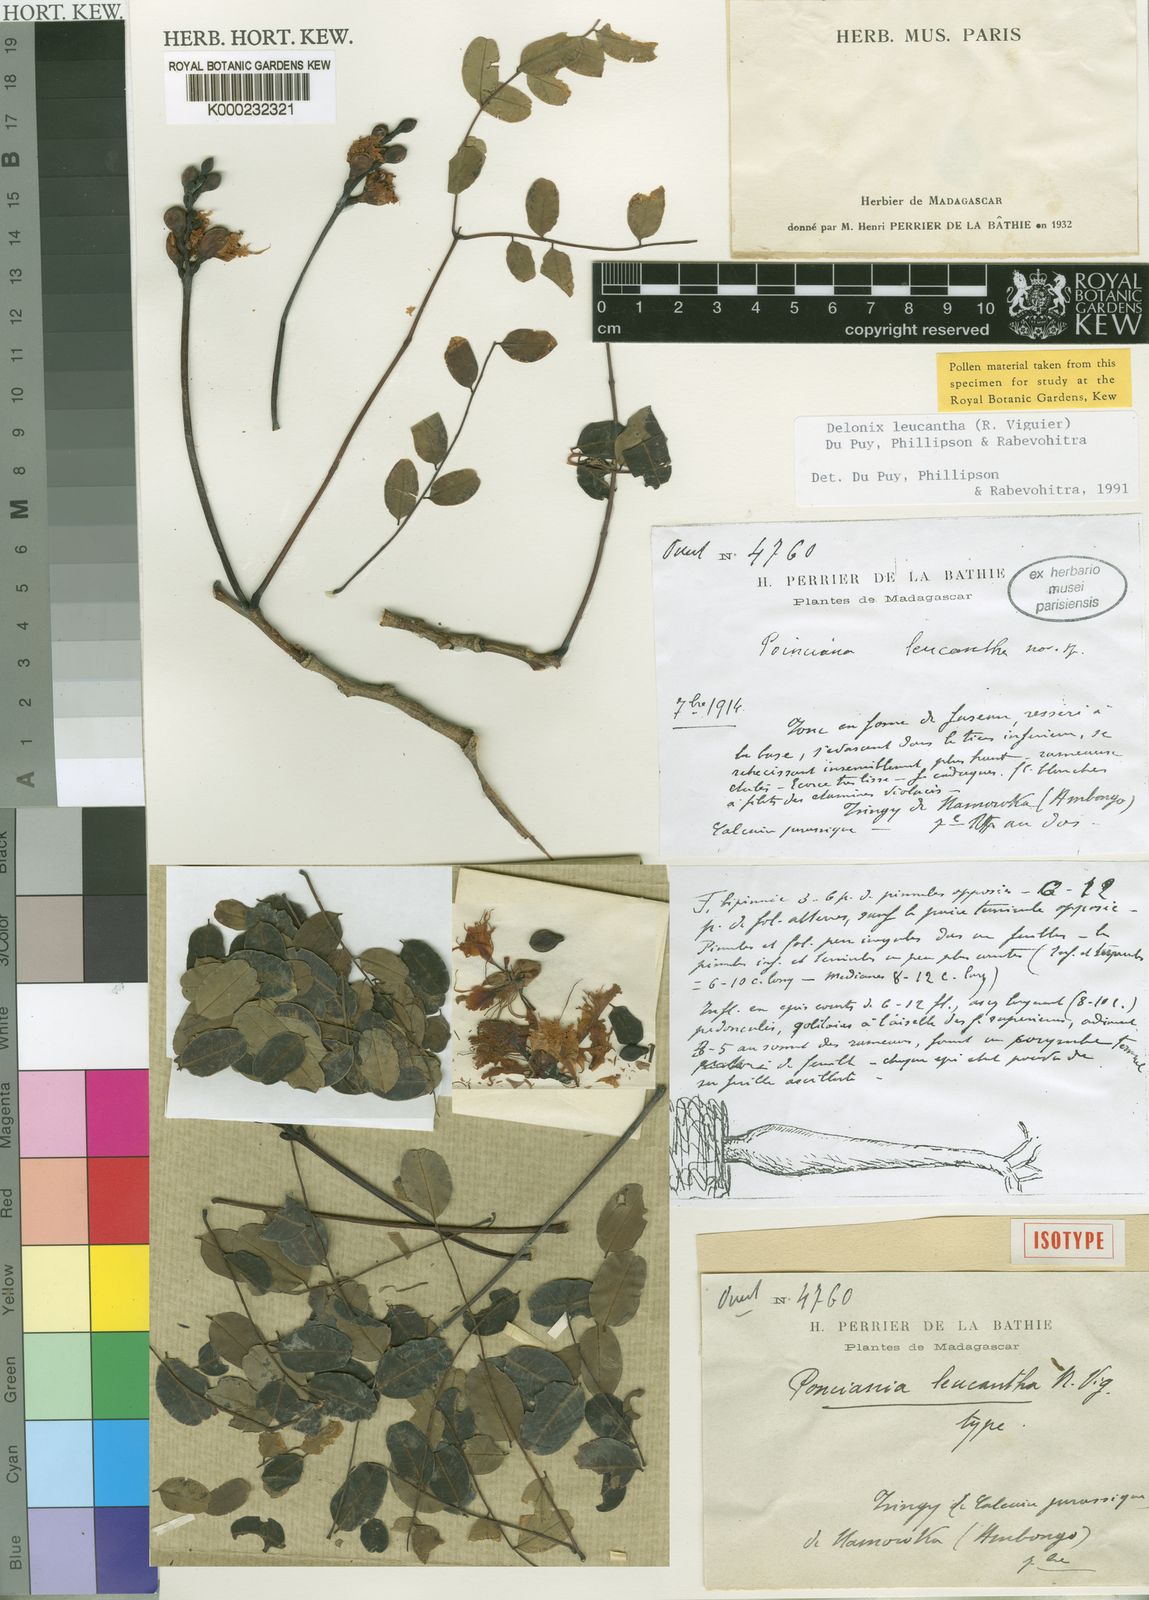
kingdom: Plantae
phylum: Tracheophyta
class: Magnoliopsida
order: Fabales
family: Fabaceae
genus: Delonix
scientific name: Delonix
